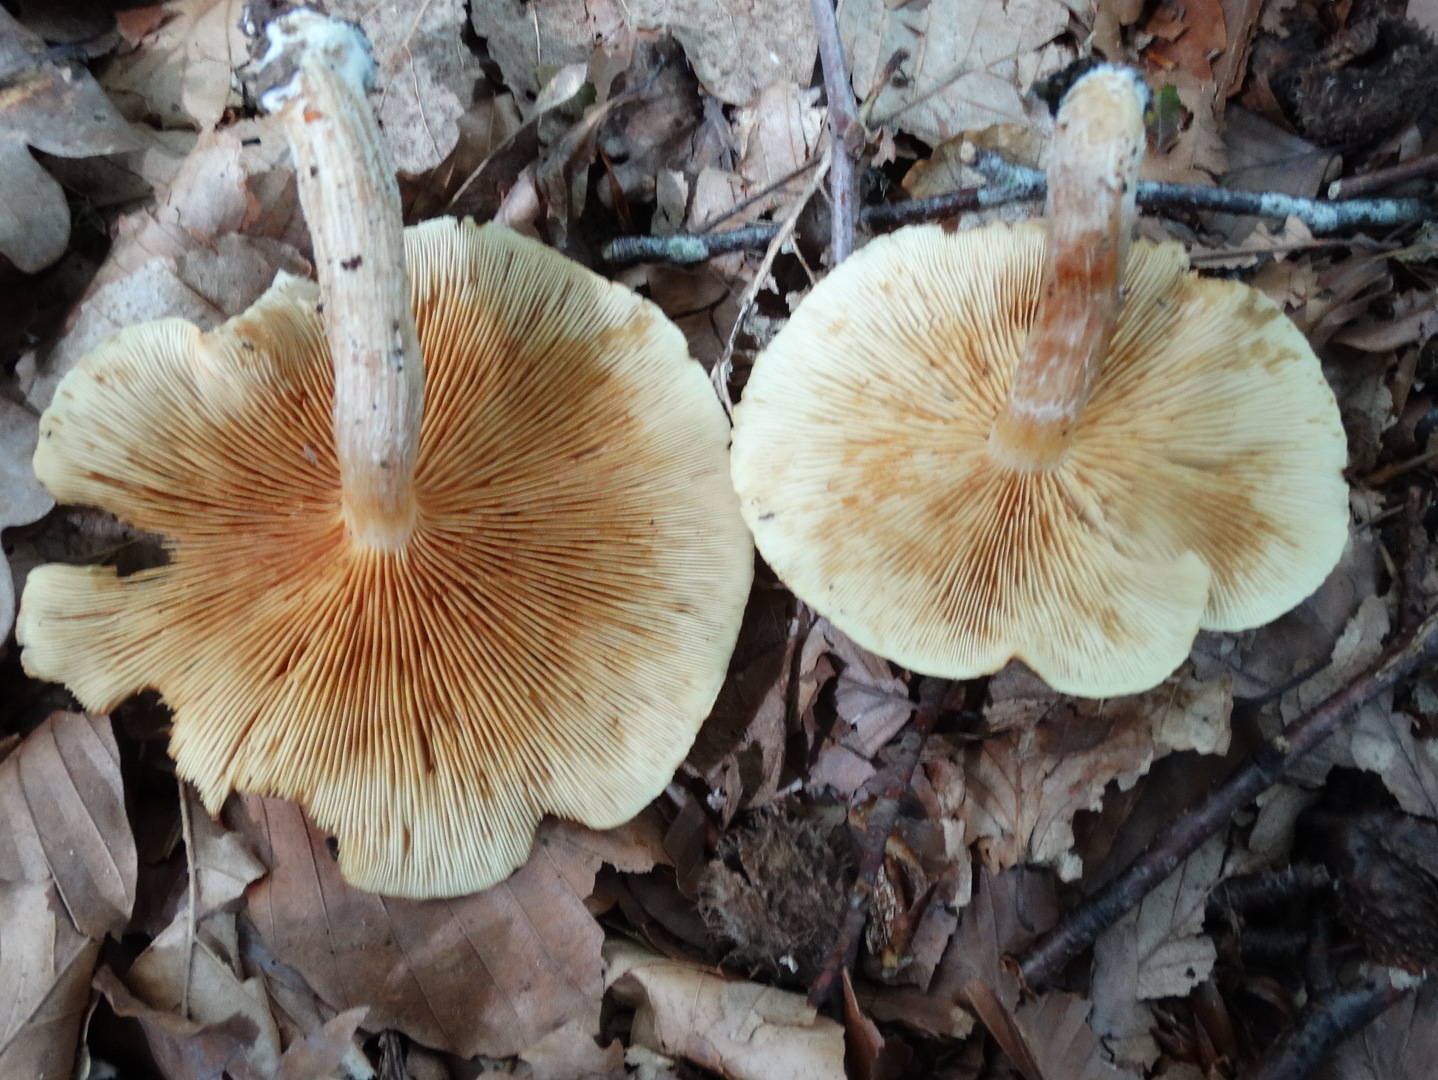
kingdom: Fungi
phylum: Basidiomycota
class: Agaricomycetes
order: Agaricales
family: Hymenogastraceae
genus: Gymnopilus
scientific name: Gymnopilus penetrans
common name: plettet flammehat
